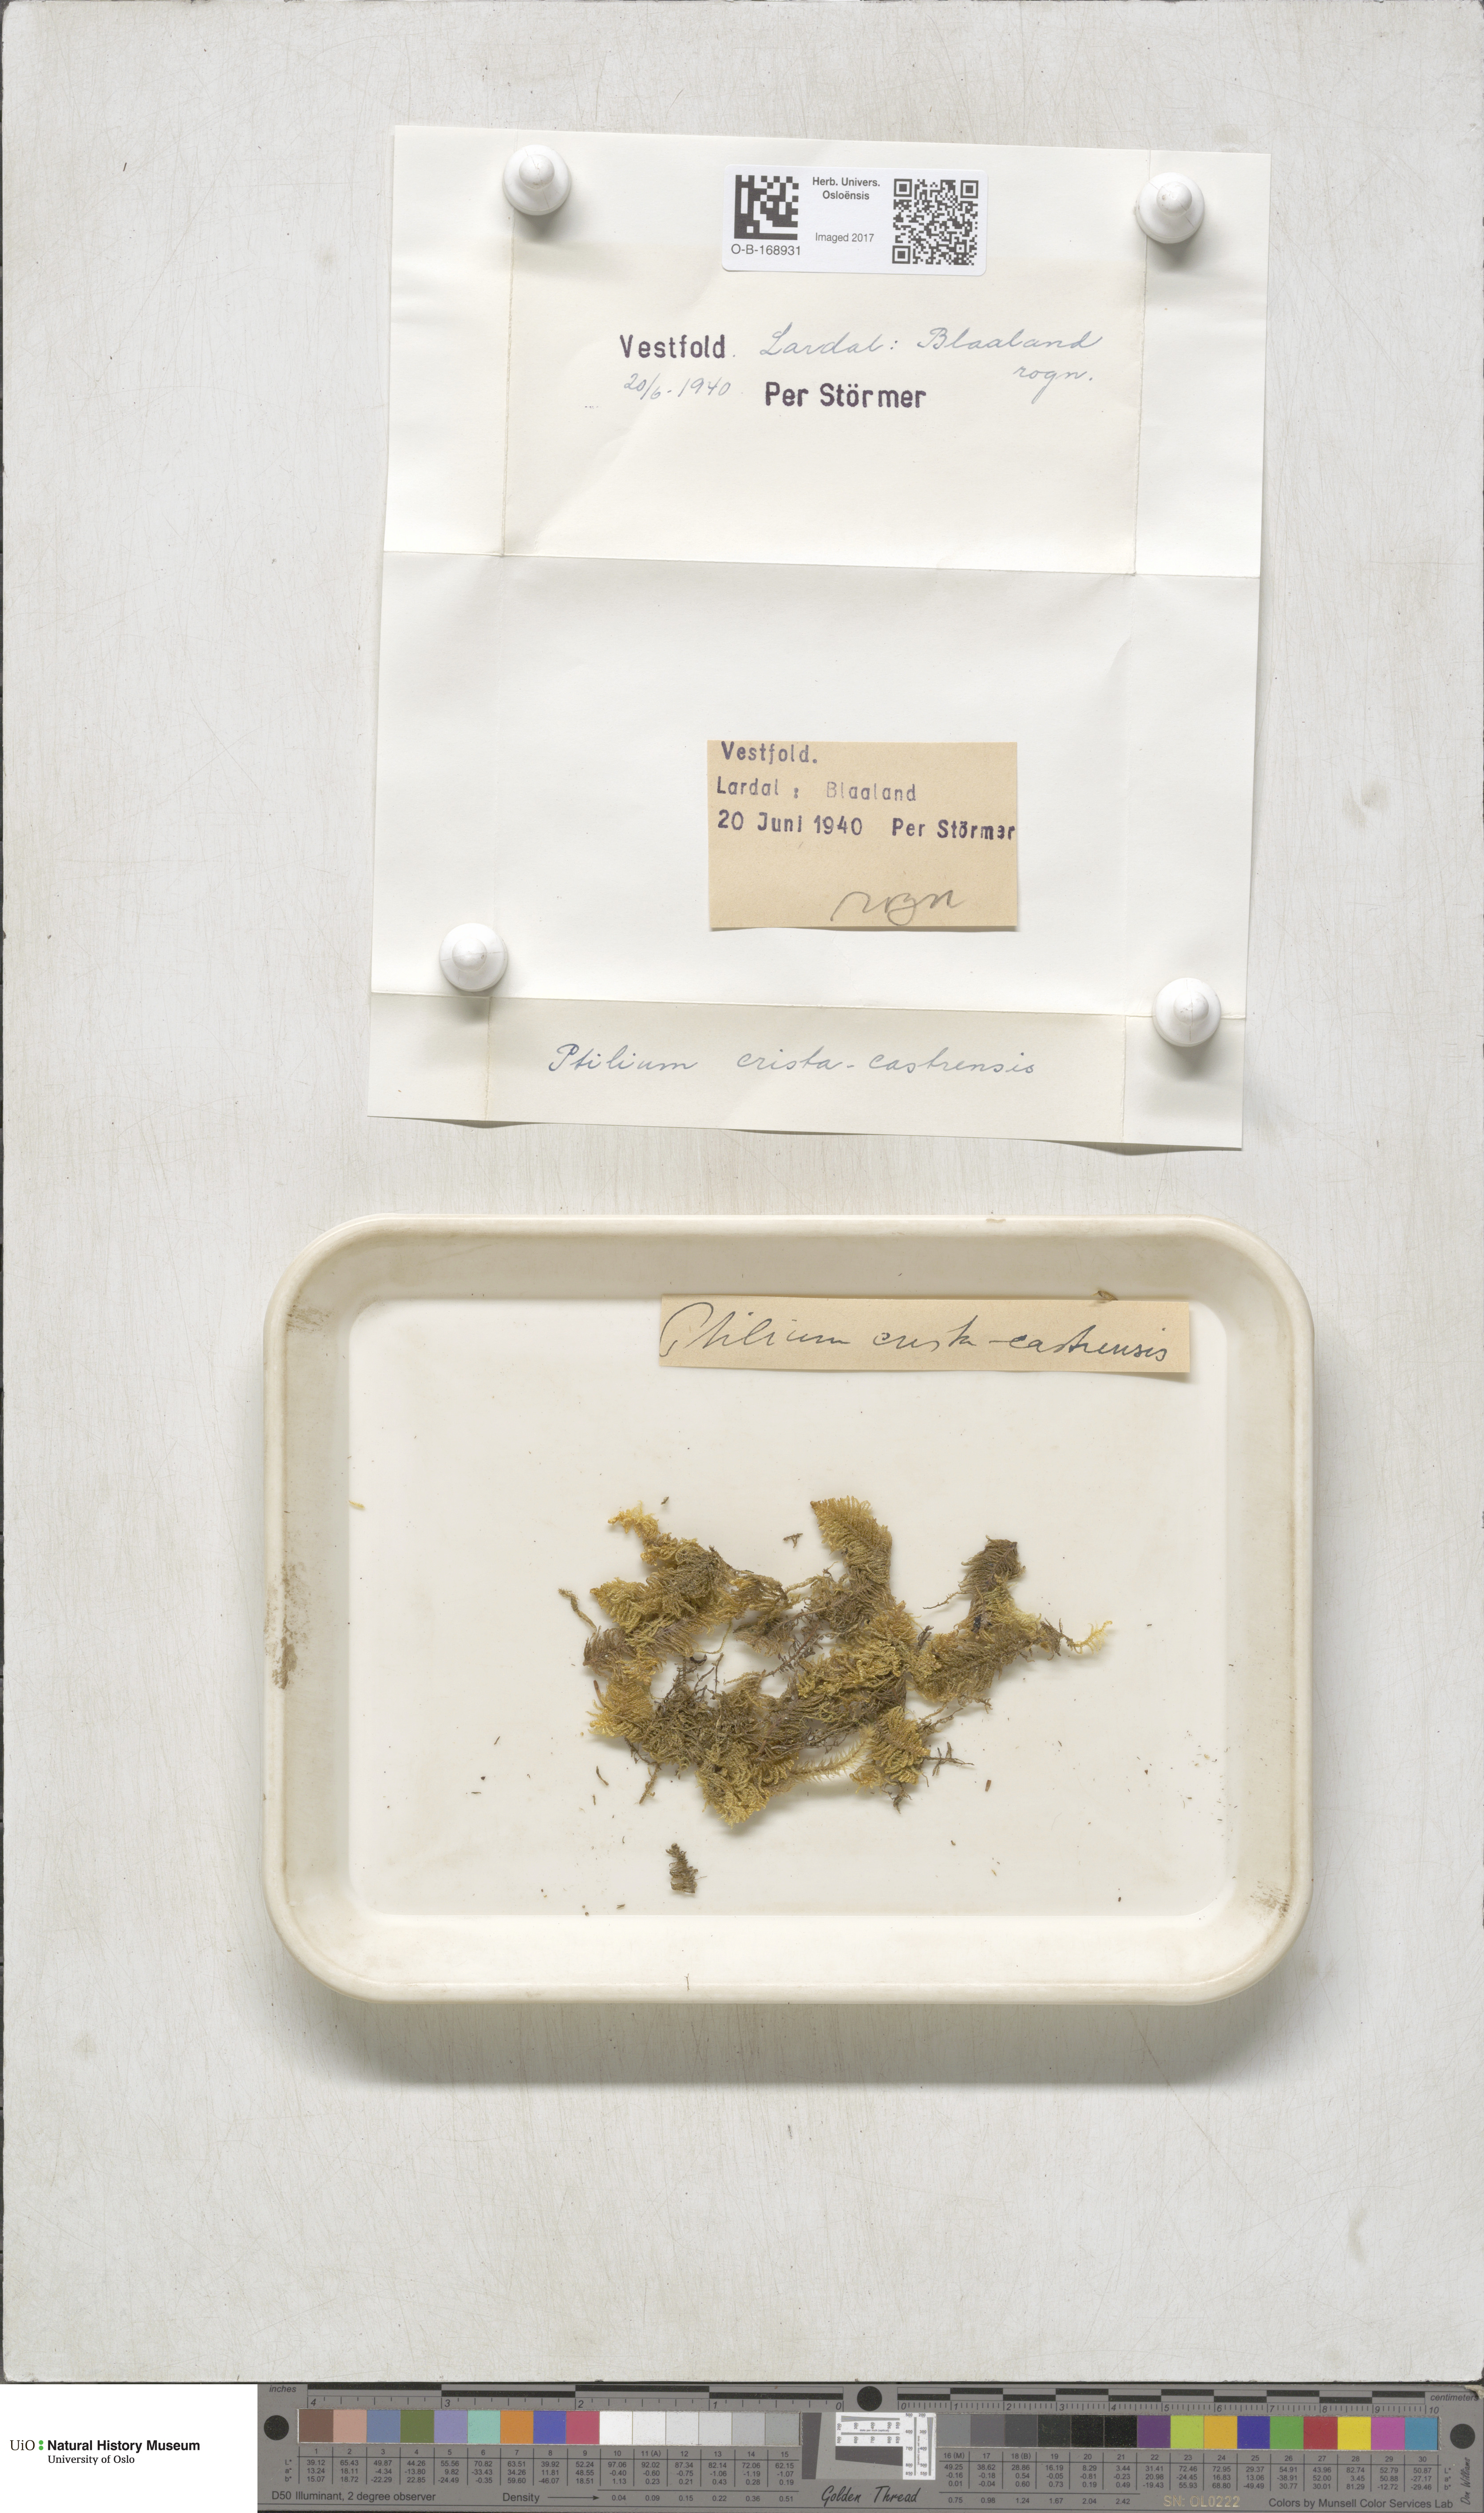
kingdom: Plantae
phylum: Bryophyta
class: Bryopsida
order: Hypnales
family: Pylaisiaceae
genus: Ptilium
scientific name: Ptilium crista-castrensis
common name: Knight's plume moss
